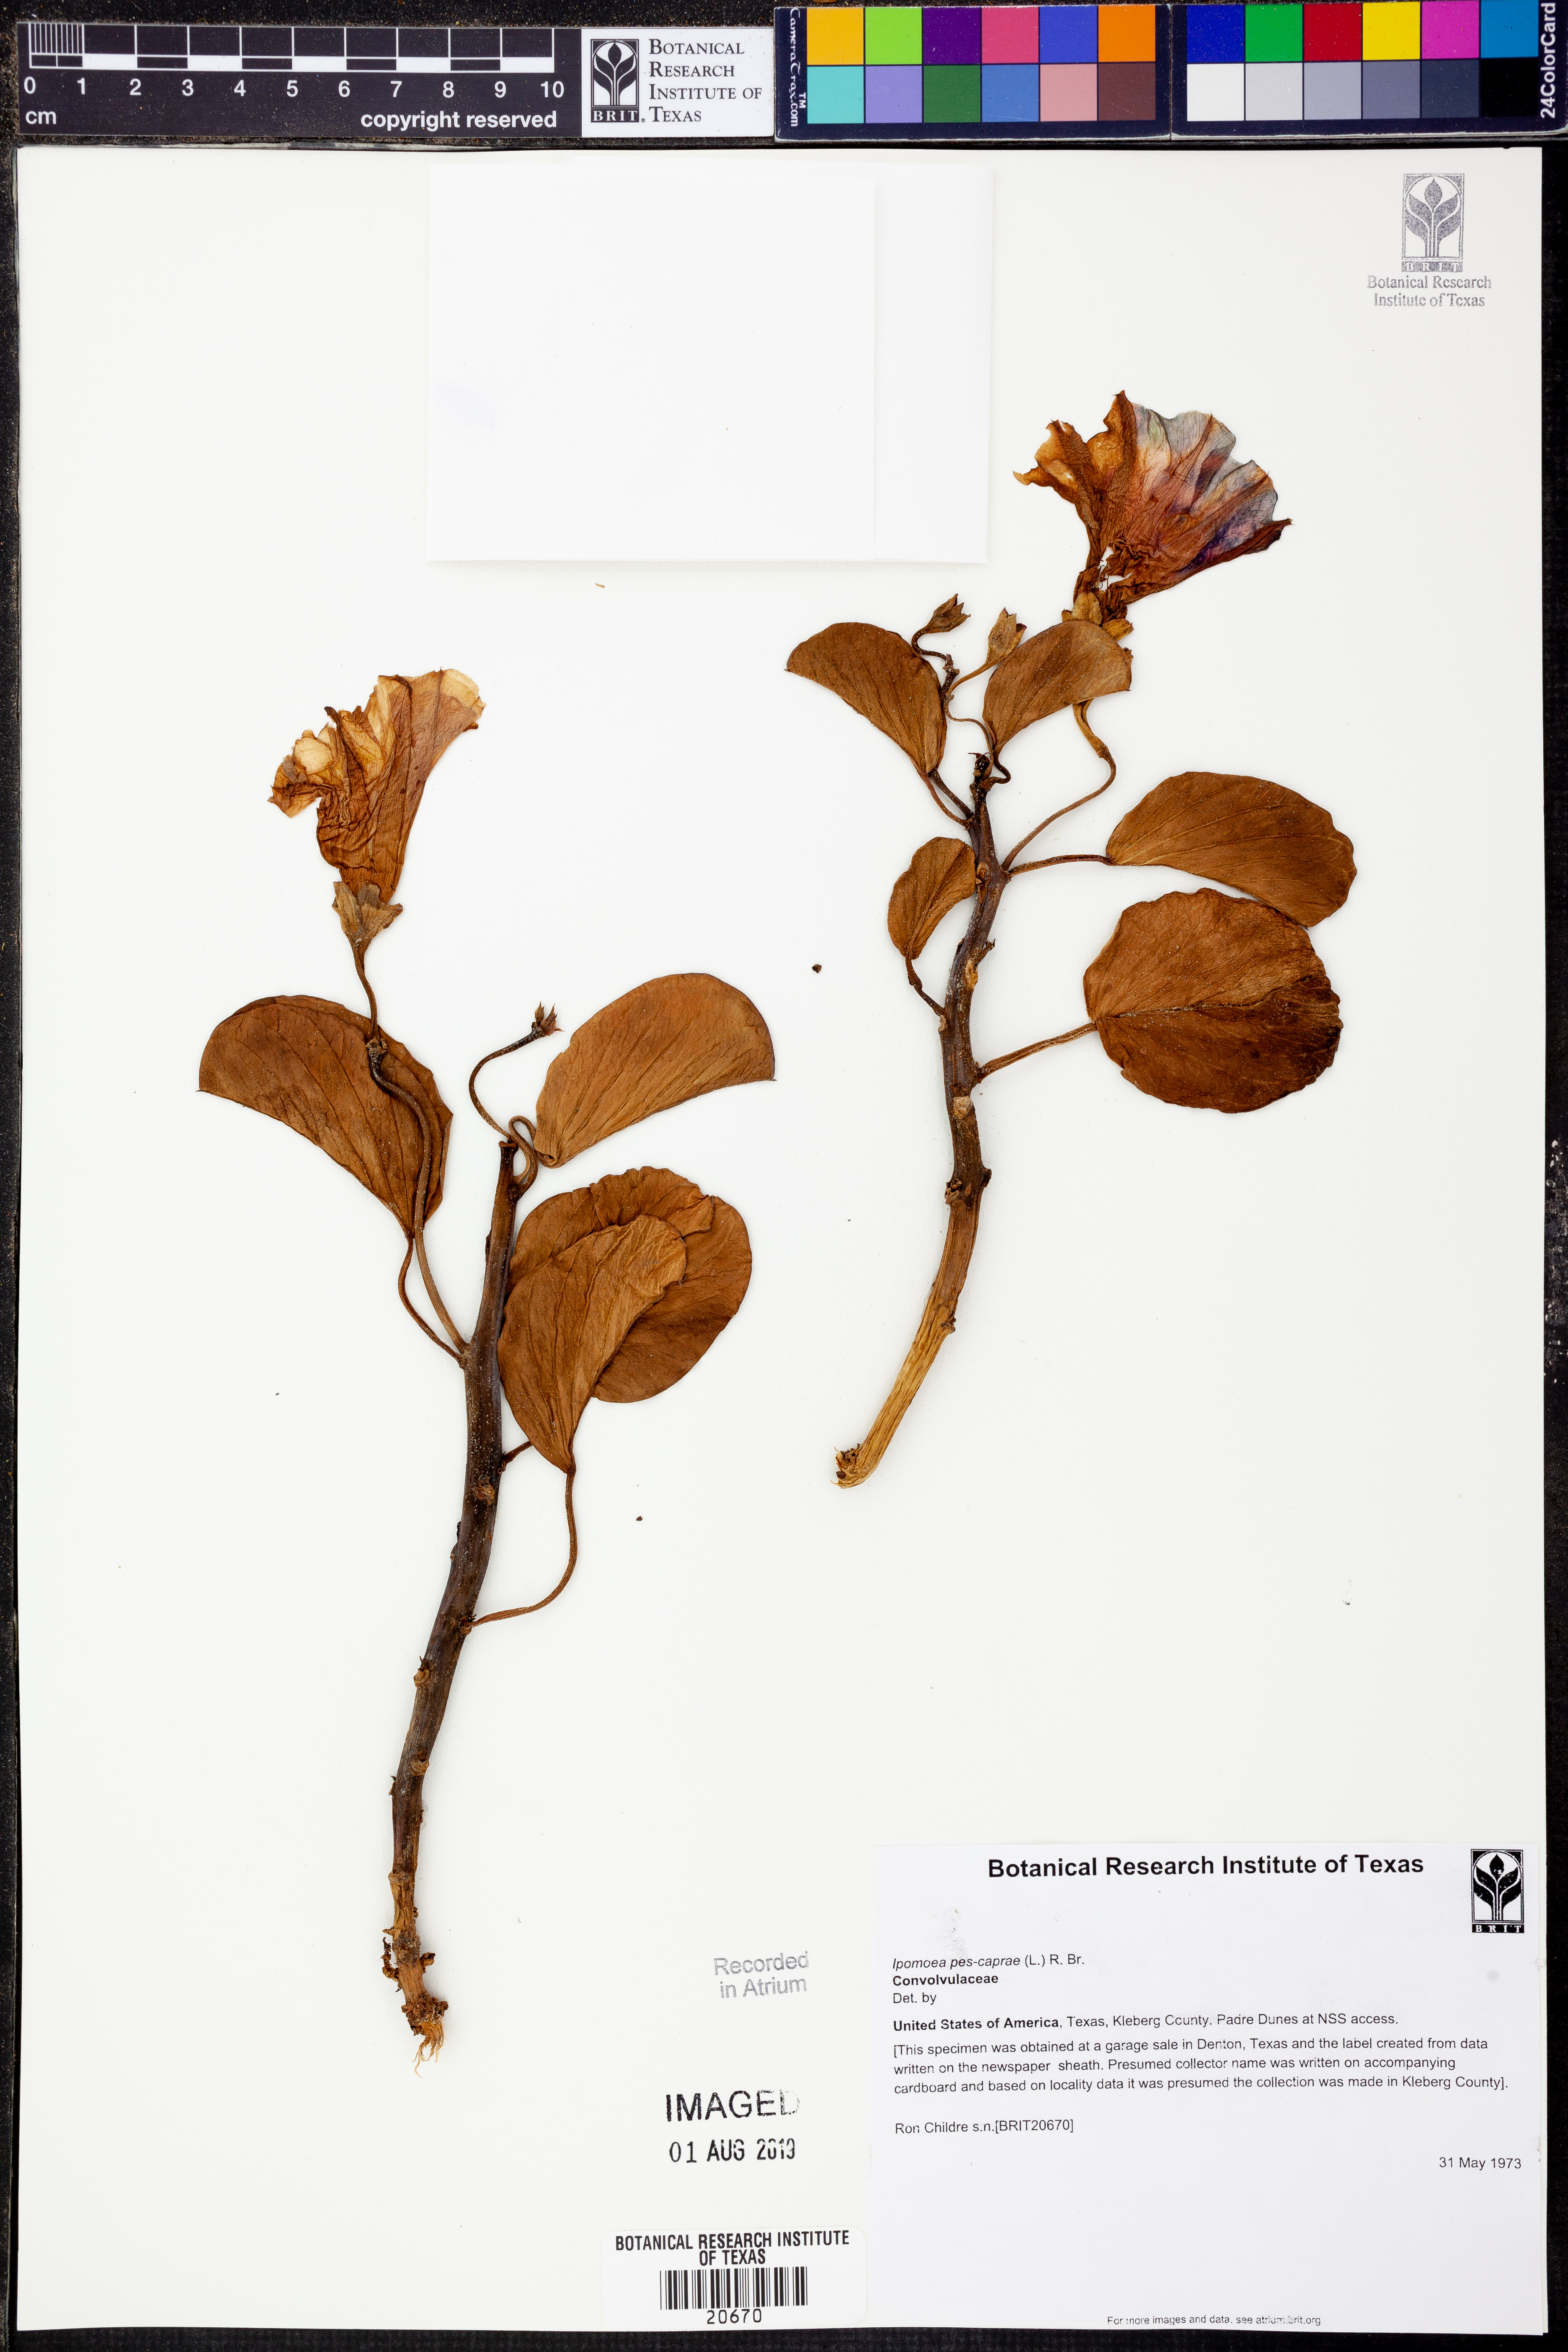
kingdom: Plantae
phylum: Tracheophyta
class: Magnoliopsida
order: Solanales
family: Convolvulaceae
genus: Ipomoea
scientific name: Ipomoea pes-caprae
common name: Beach morning glory
